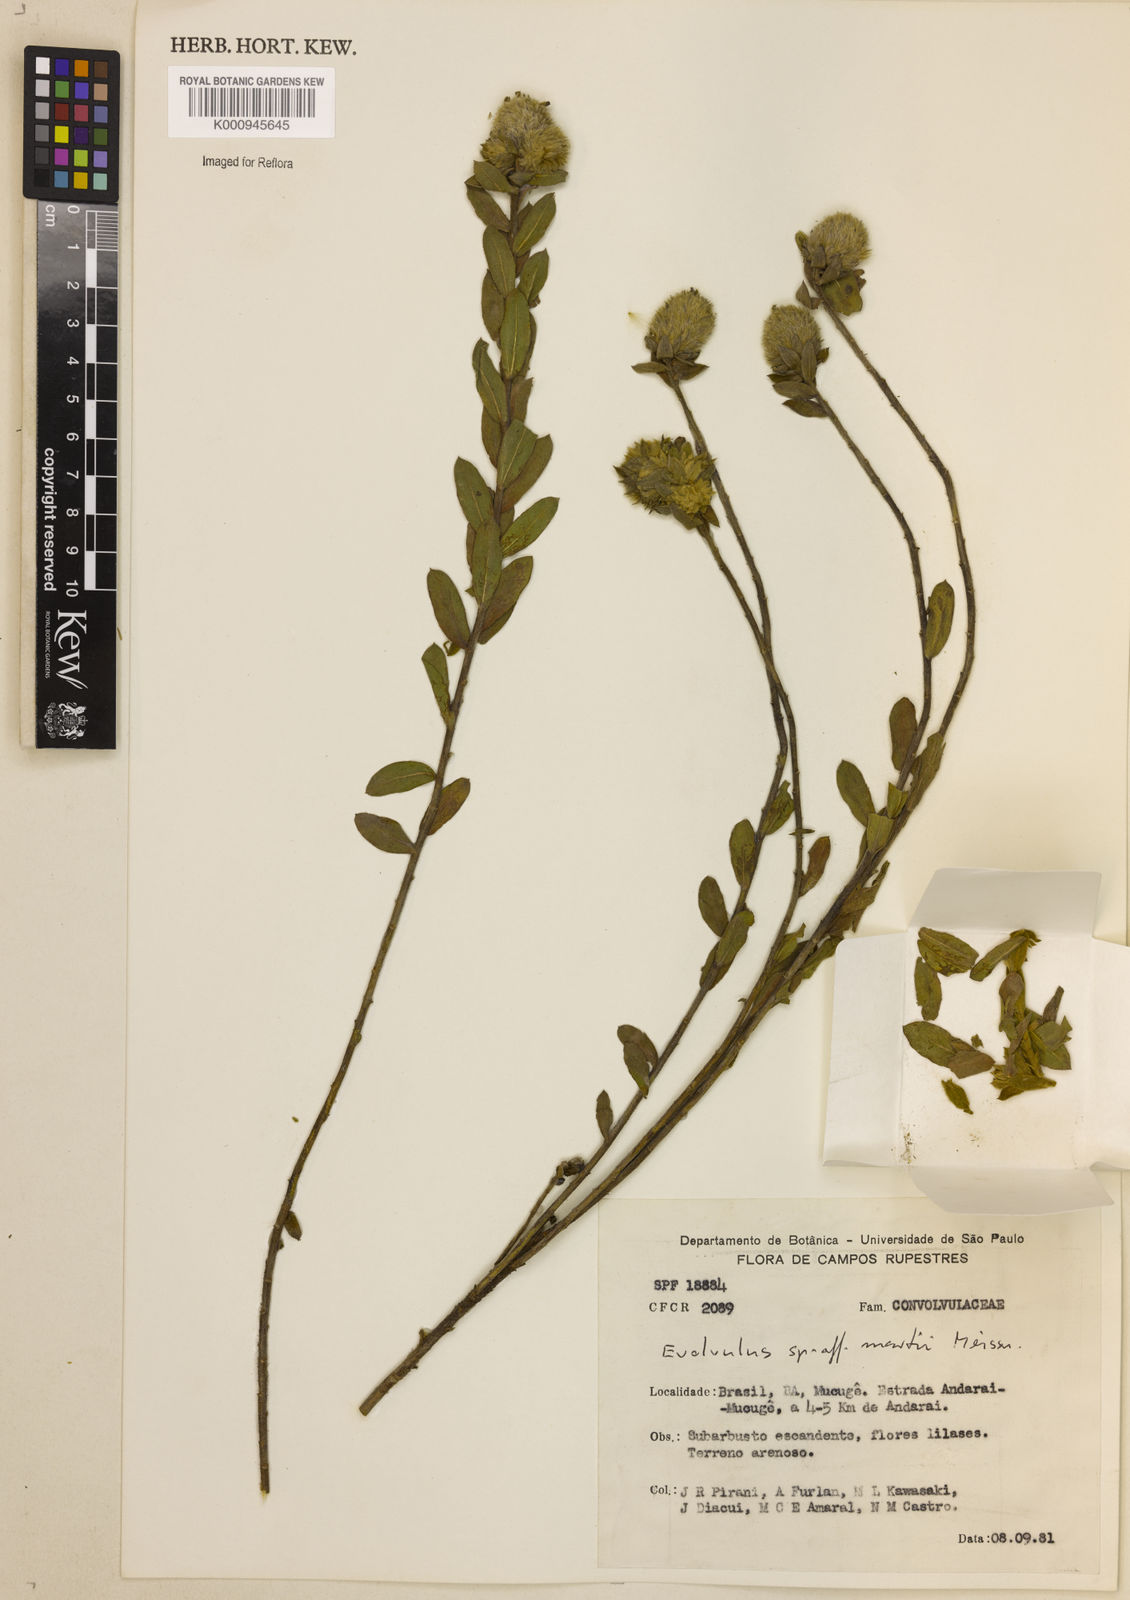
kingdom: Plantae
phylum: Tracheophyta
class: Magnoliopsida
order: Solanales
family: Convolvulaceae
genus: Evolvulus
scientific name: Evolvulus
